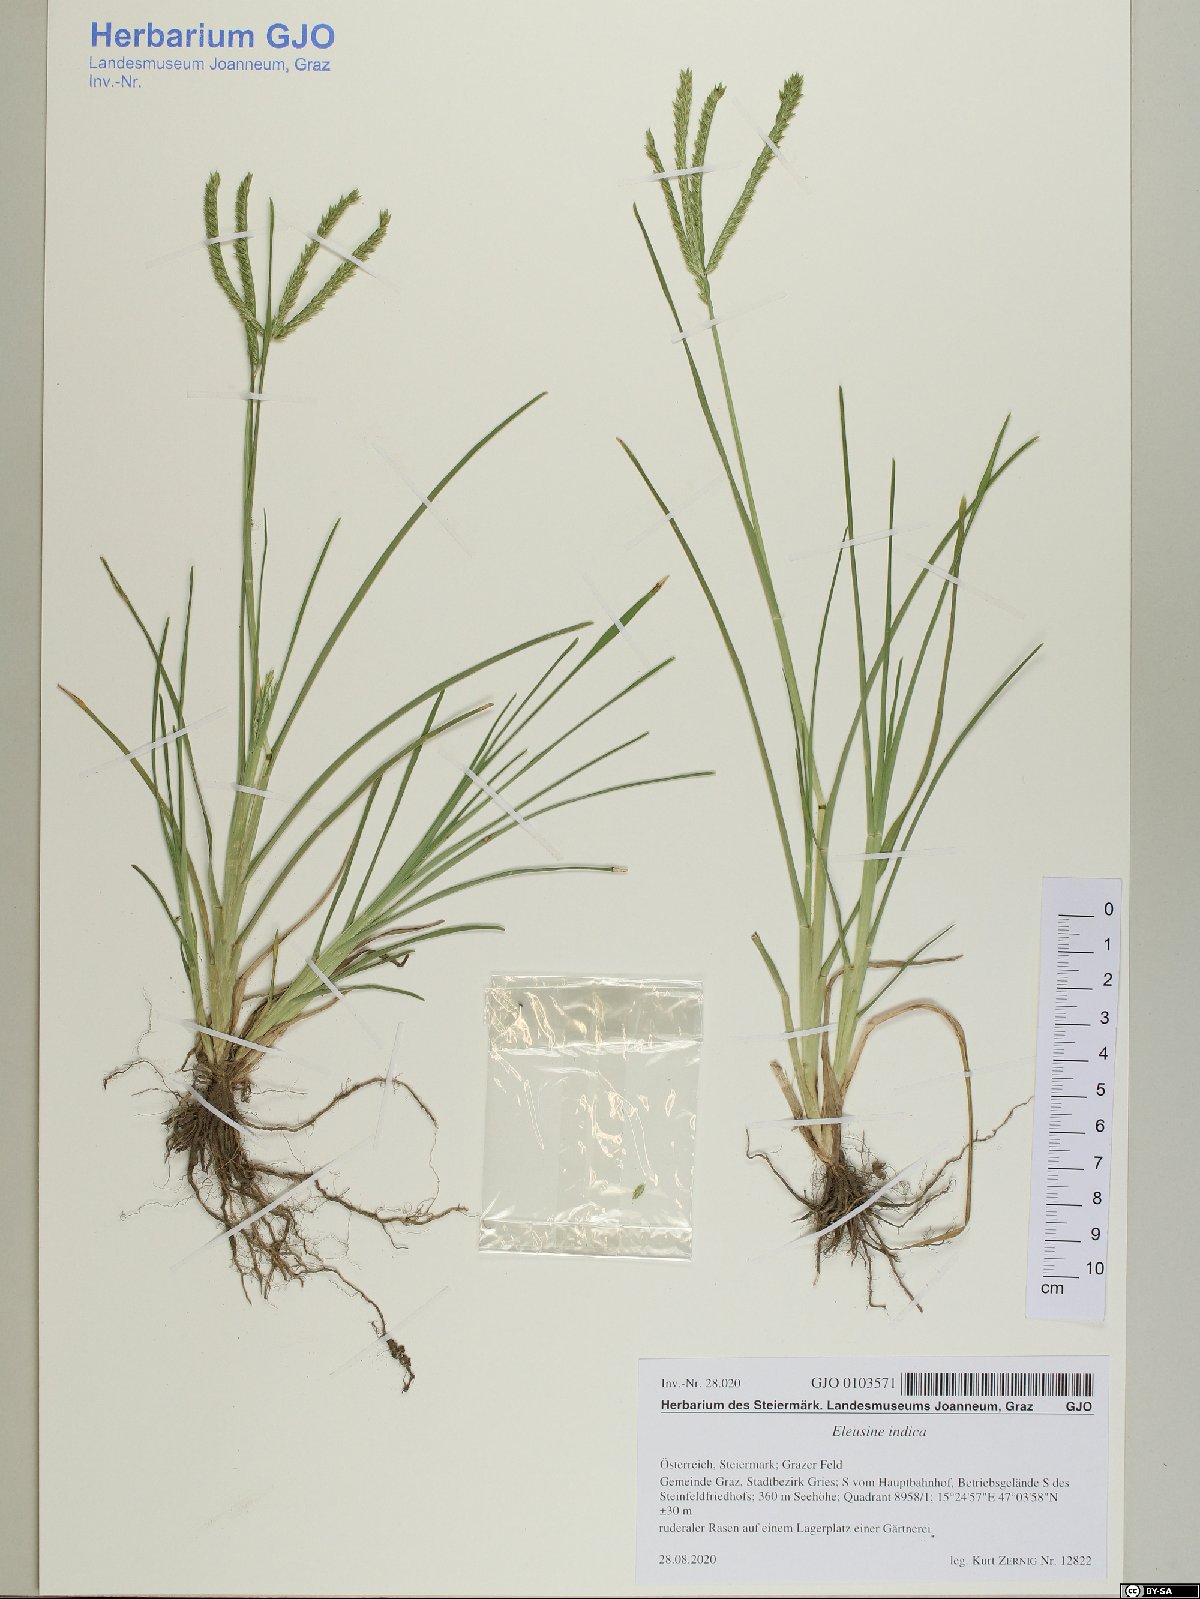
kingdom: Plantae
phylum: Tracheophyta
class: Liliopsida
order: Poales
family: Poaceae
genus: Eleusine
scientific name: Eleusine indica
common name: Yard-grass
